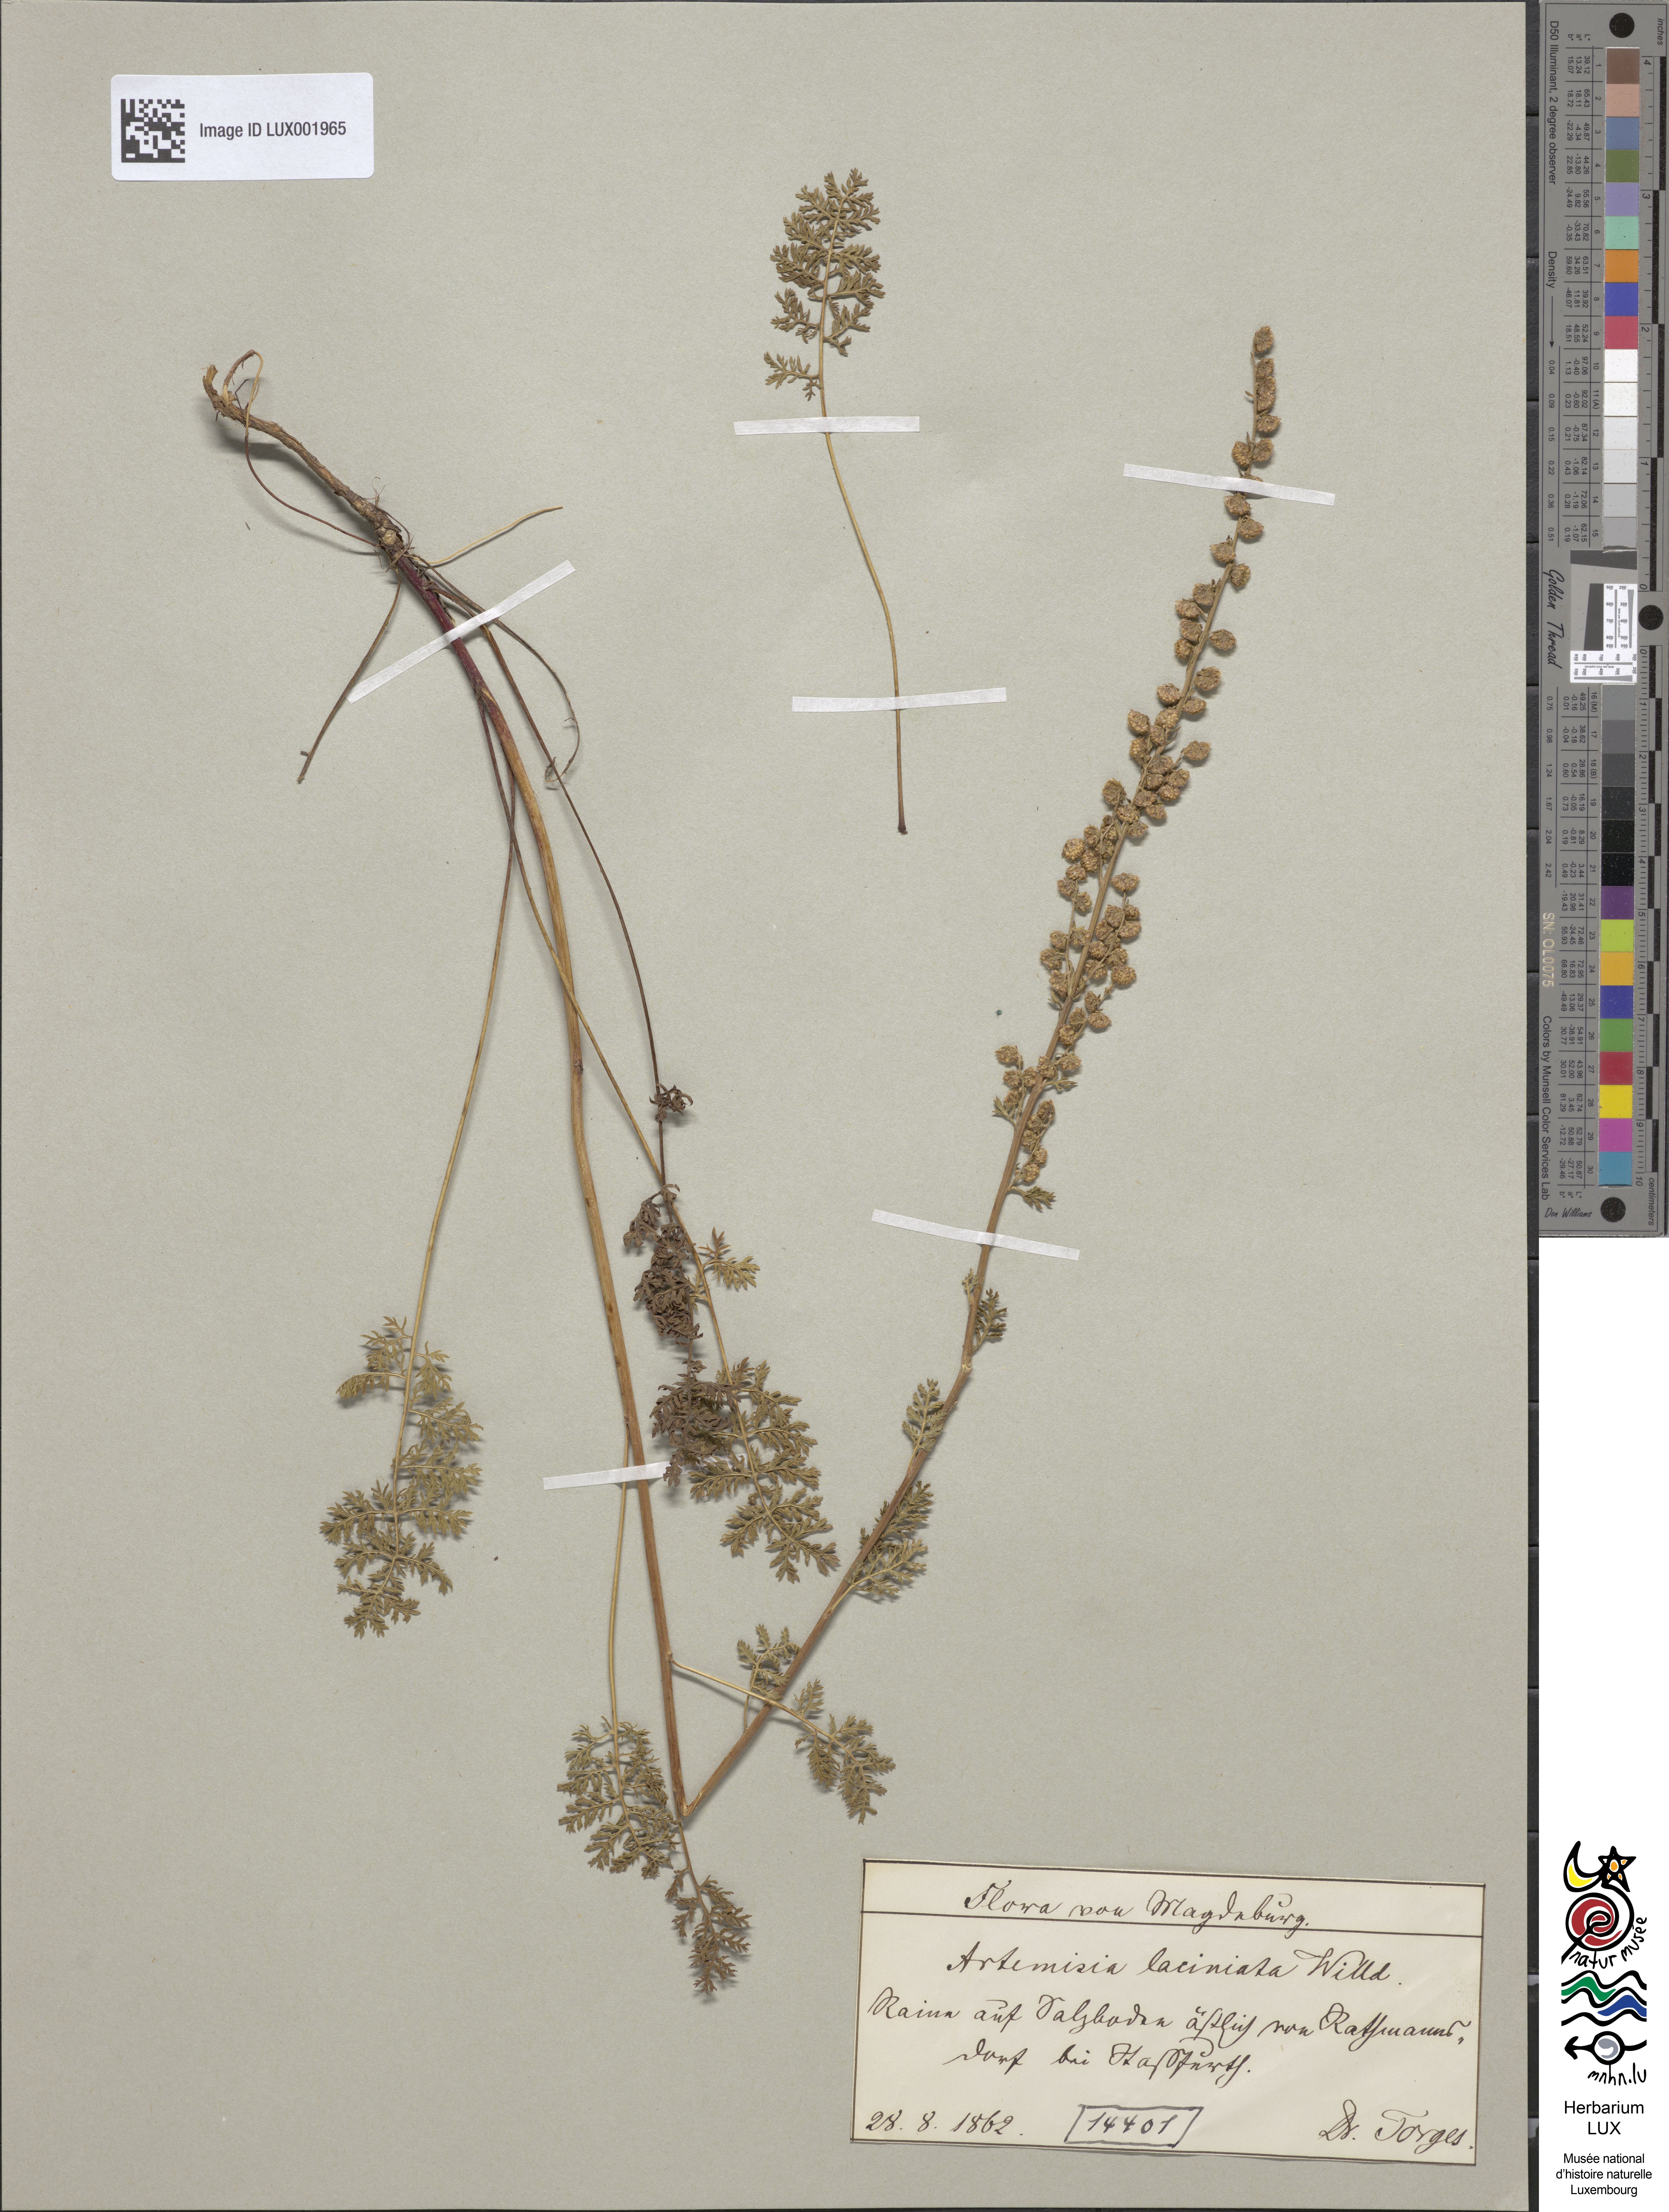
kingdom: Plantae
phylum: Tracheophyta
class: Magnoliopsida
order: Asterales
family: Asteraceae
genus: Artemisia
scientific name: Artemisia laciniata
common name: Siberian wormwood
